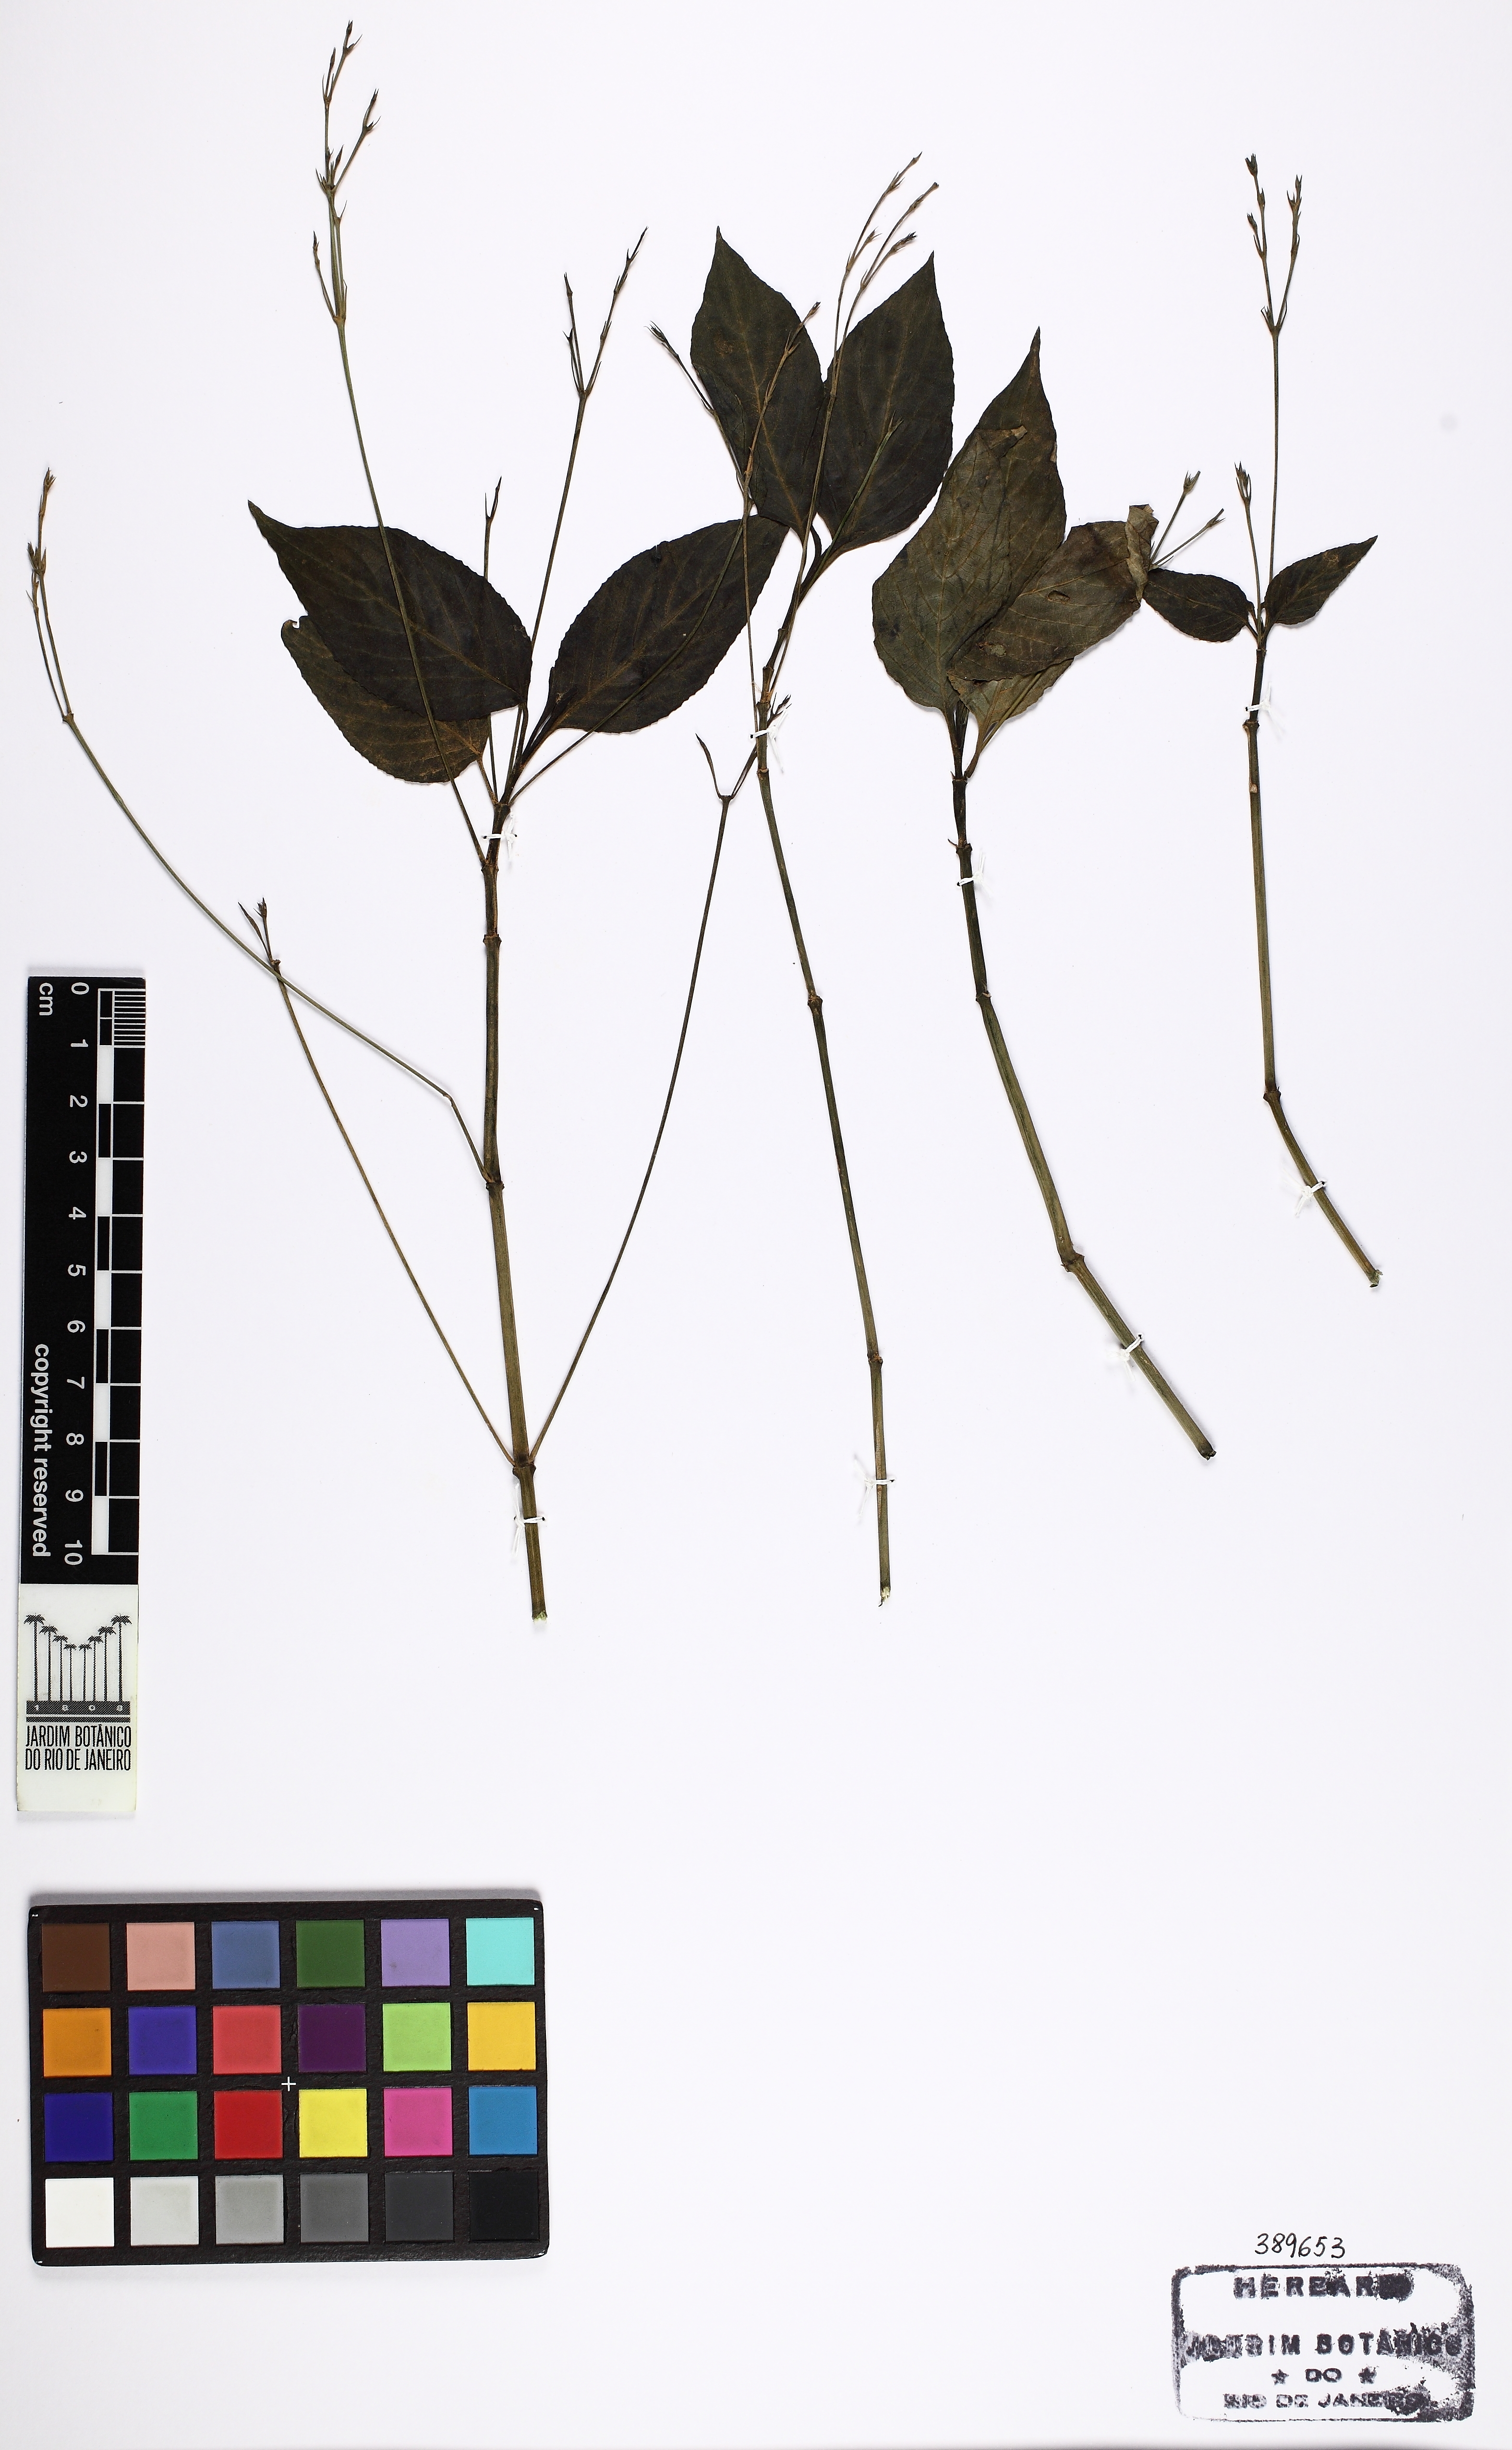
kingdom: Plantae
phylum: Tracheophyta
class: Magnoliopsida
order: Lamiales
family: Acanthaceae
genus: Ruellia
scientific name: Ruellia brevifolia
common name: Tropical wild petunia
